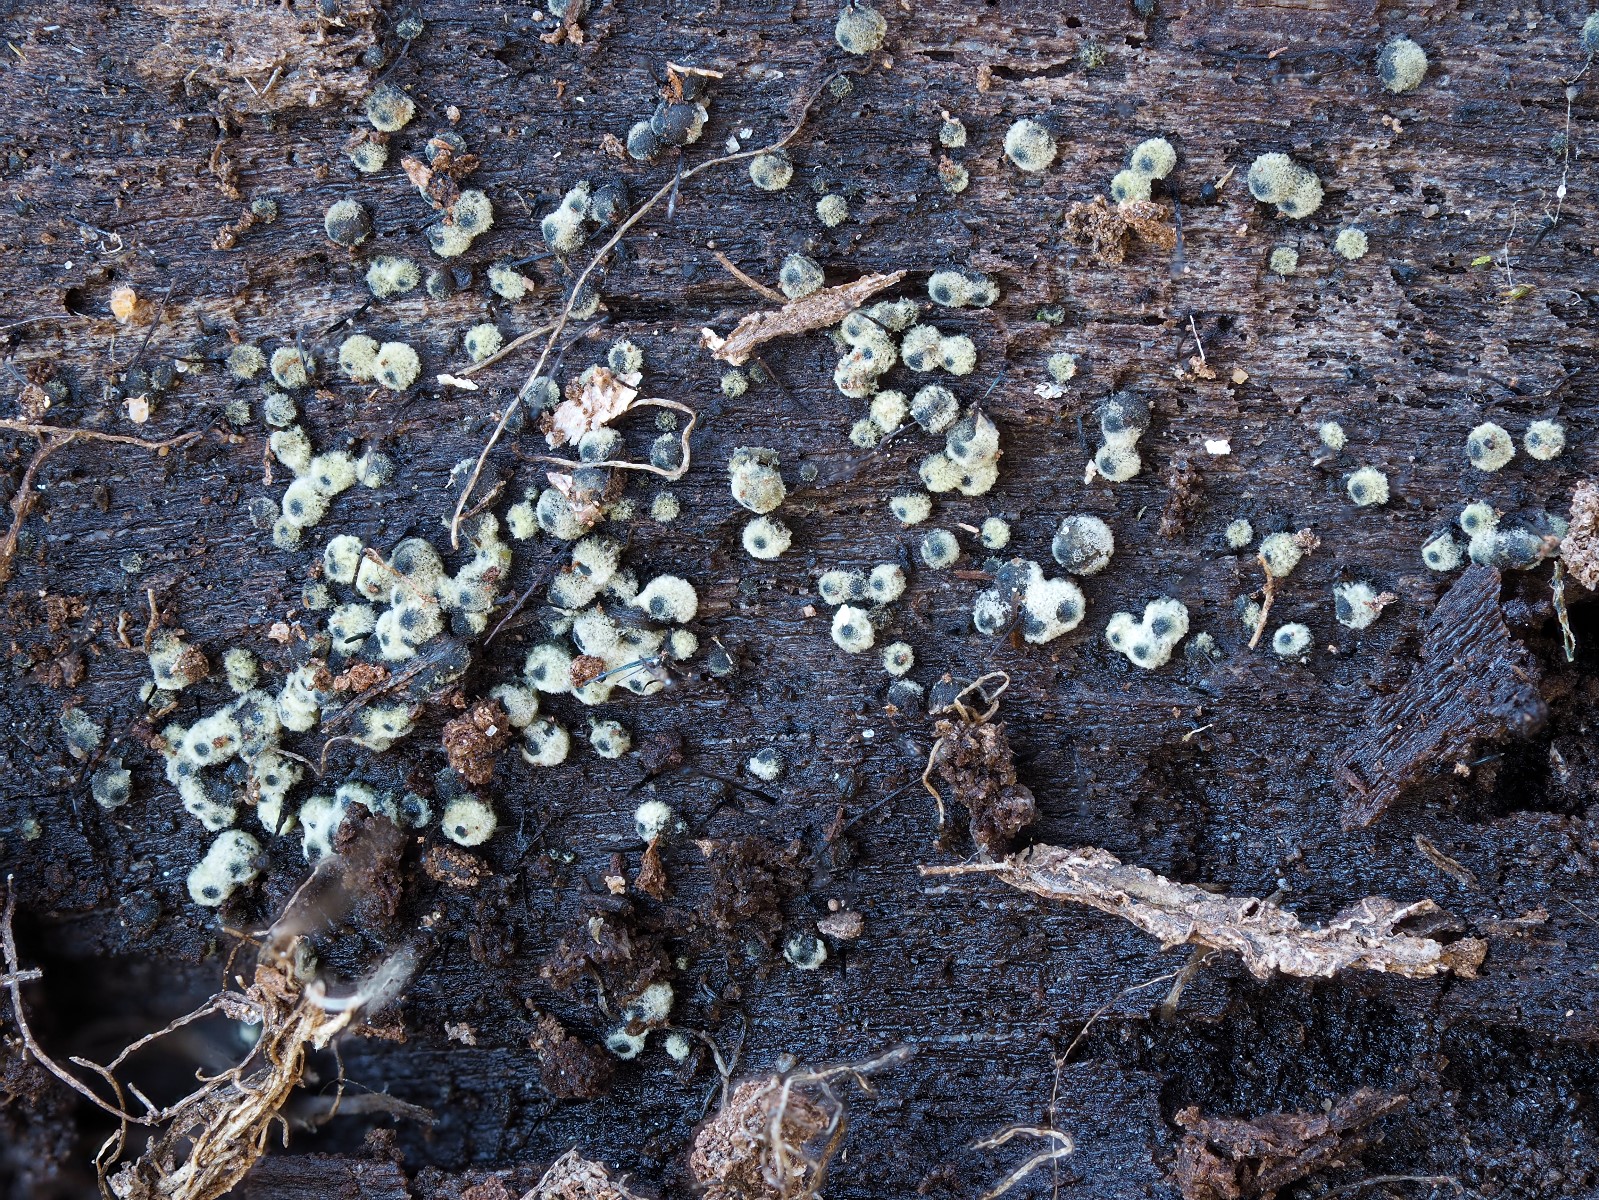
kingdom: Fungi
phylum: Ascomycota
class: Sordariomycetes
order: Sordariales
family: Lasiosphaeriaceae
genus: Lasiosphaeria
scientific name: Lasiosphaeria
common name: kernesvamp
